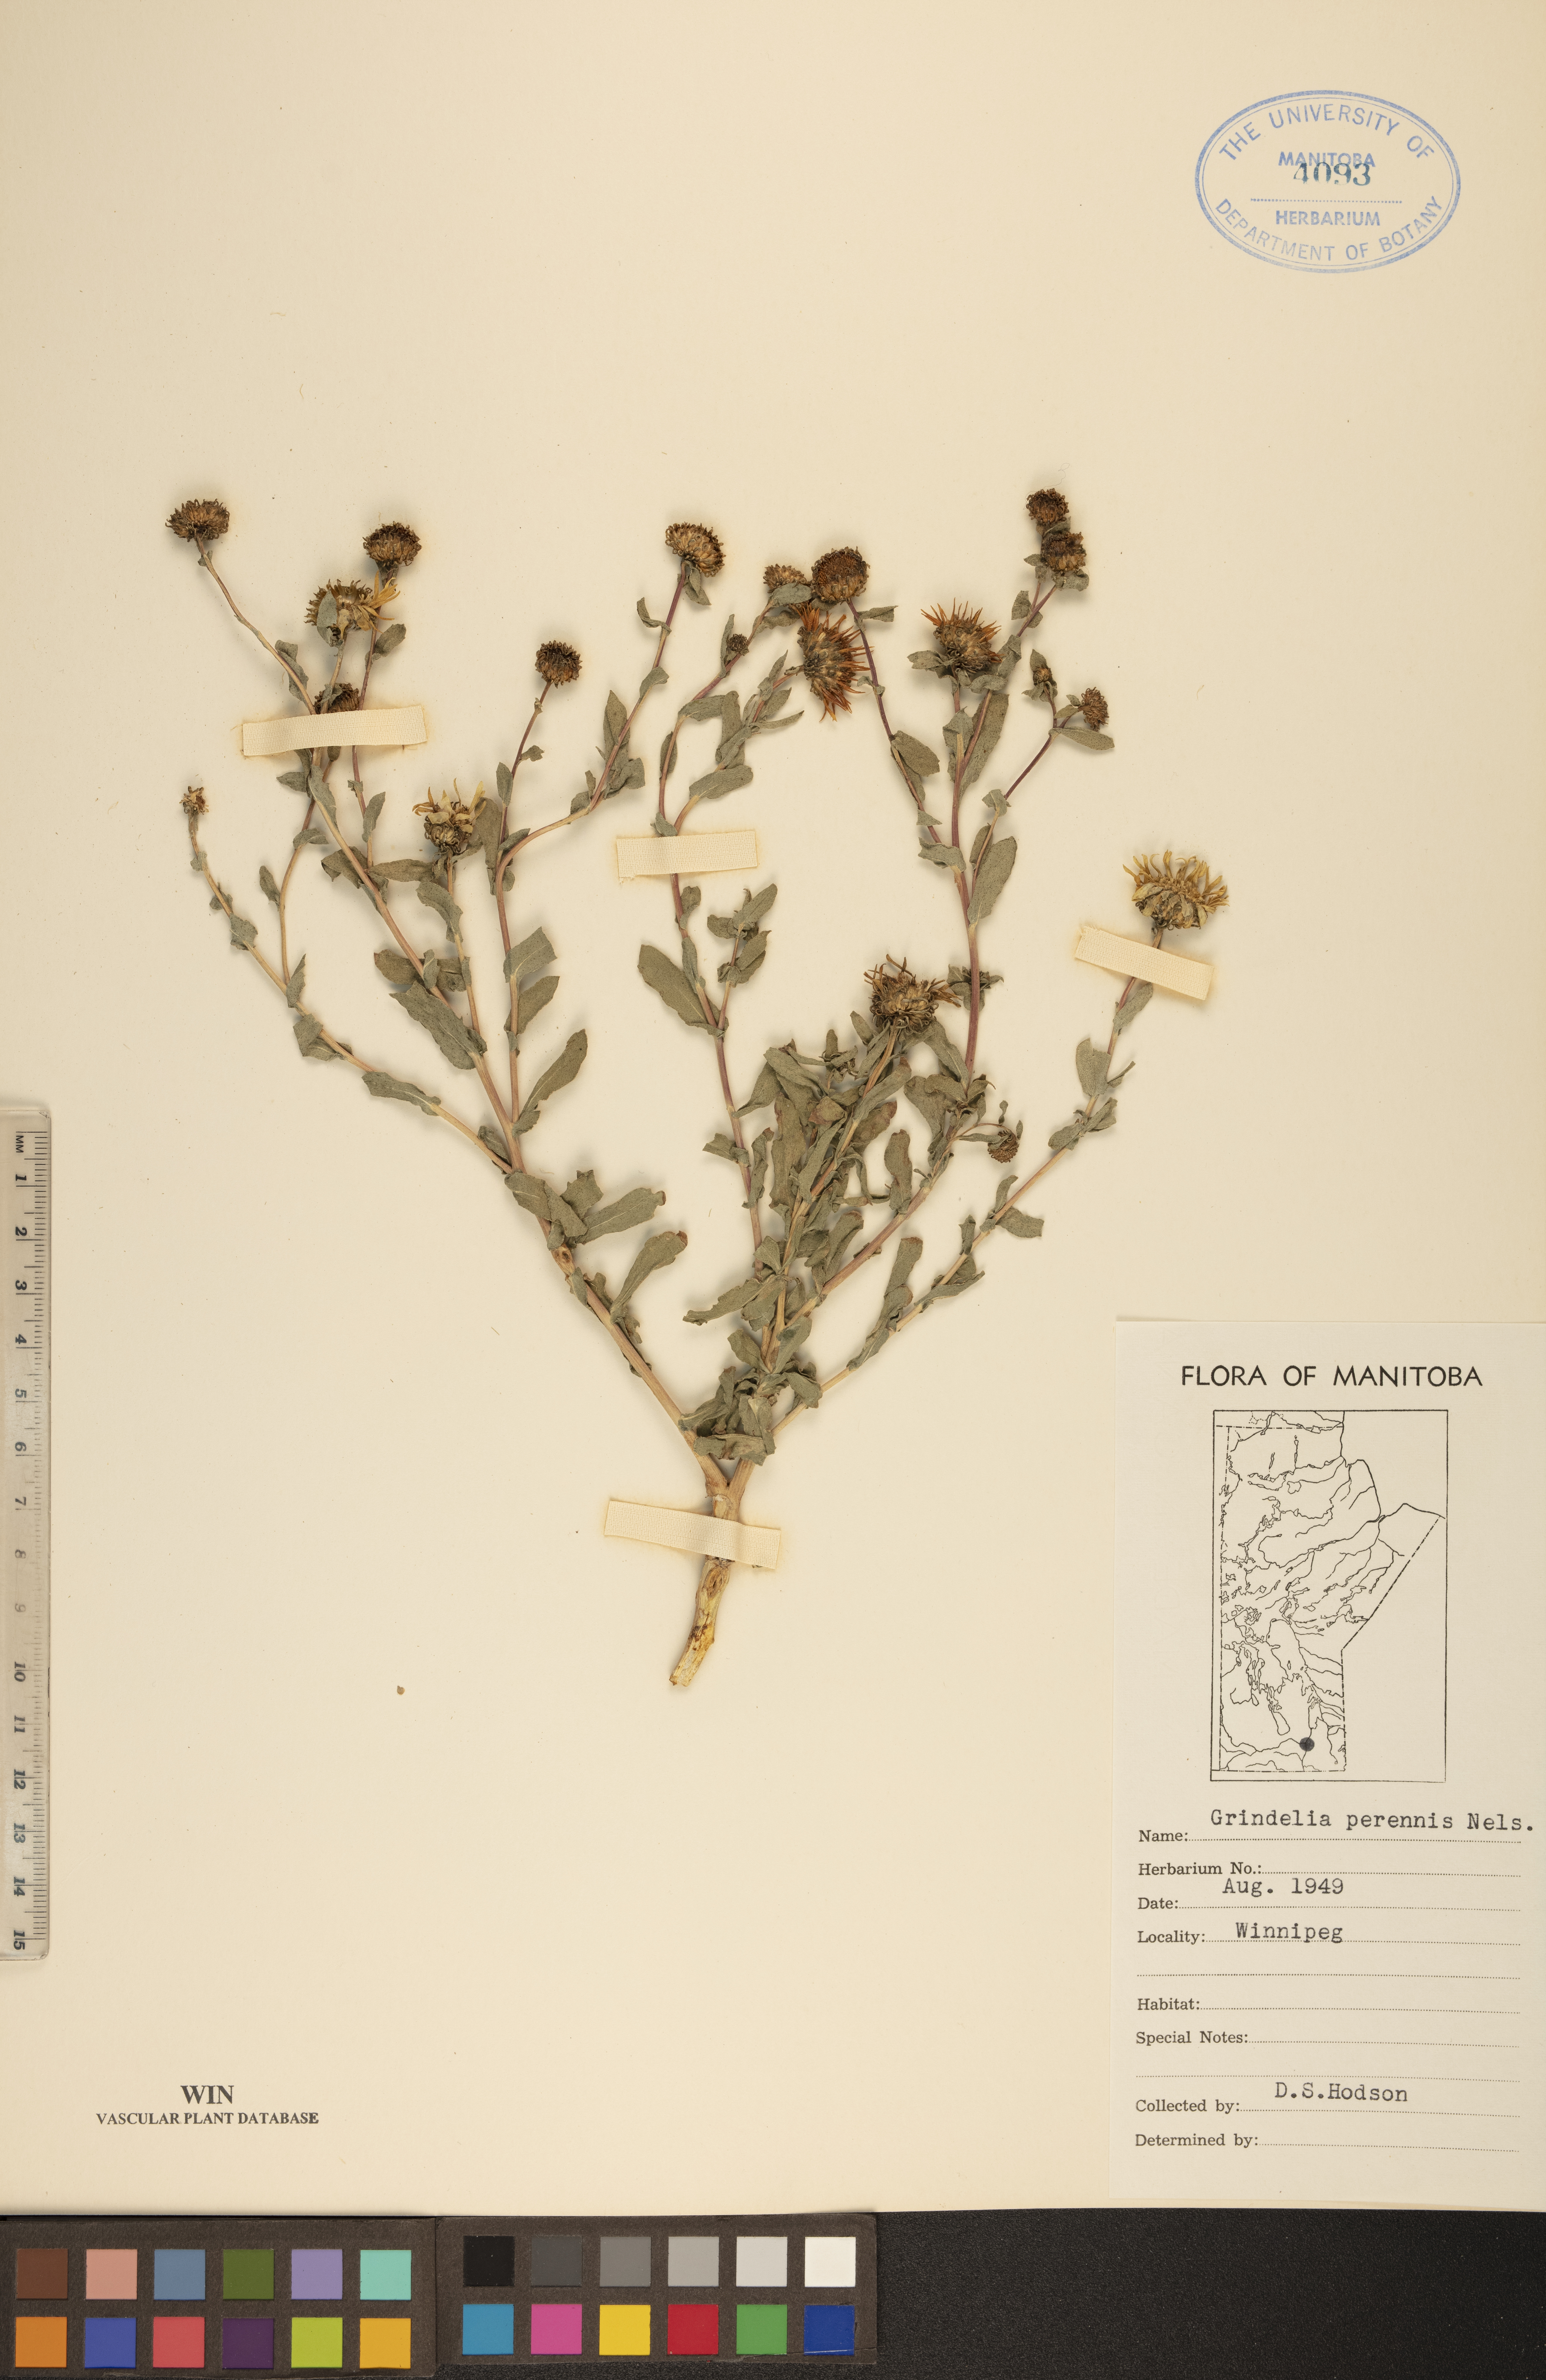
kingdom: Plantae
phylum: Tracheophyta
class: Magnoliopsida
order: Asterales
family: Asteraceae
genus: Grindelia
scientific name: Grindelia hirsutula
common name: Hairy gumweed
